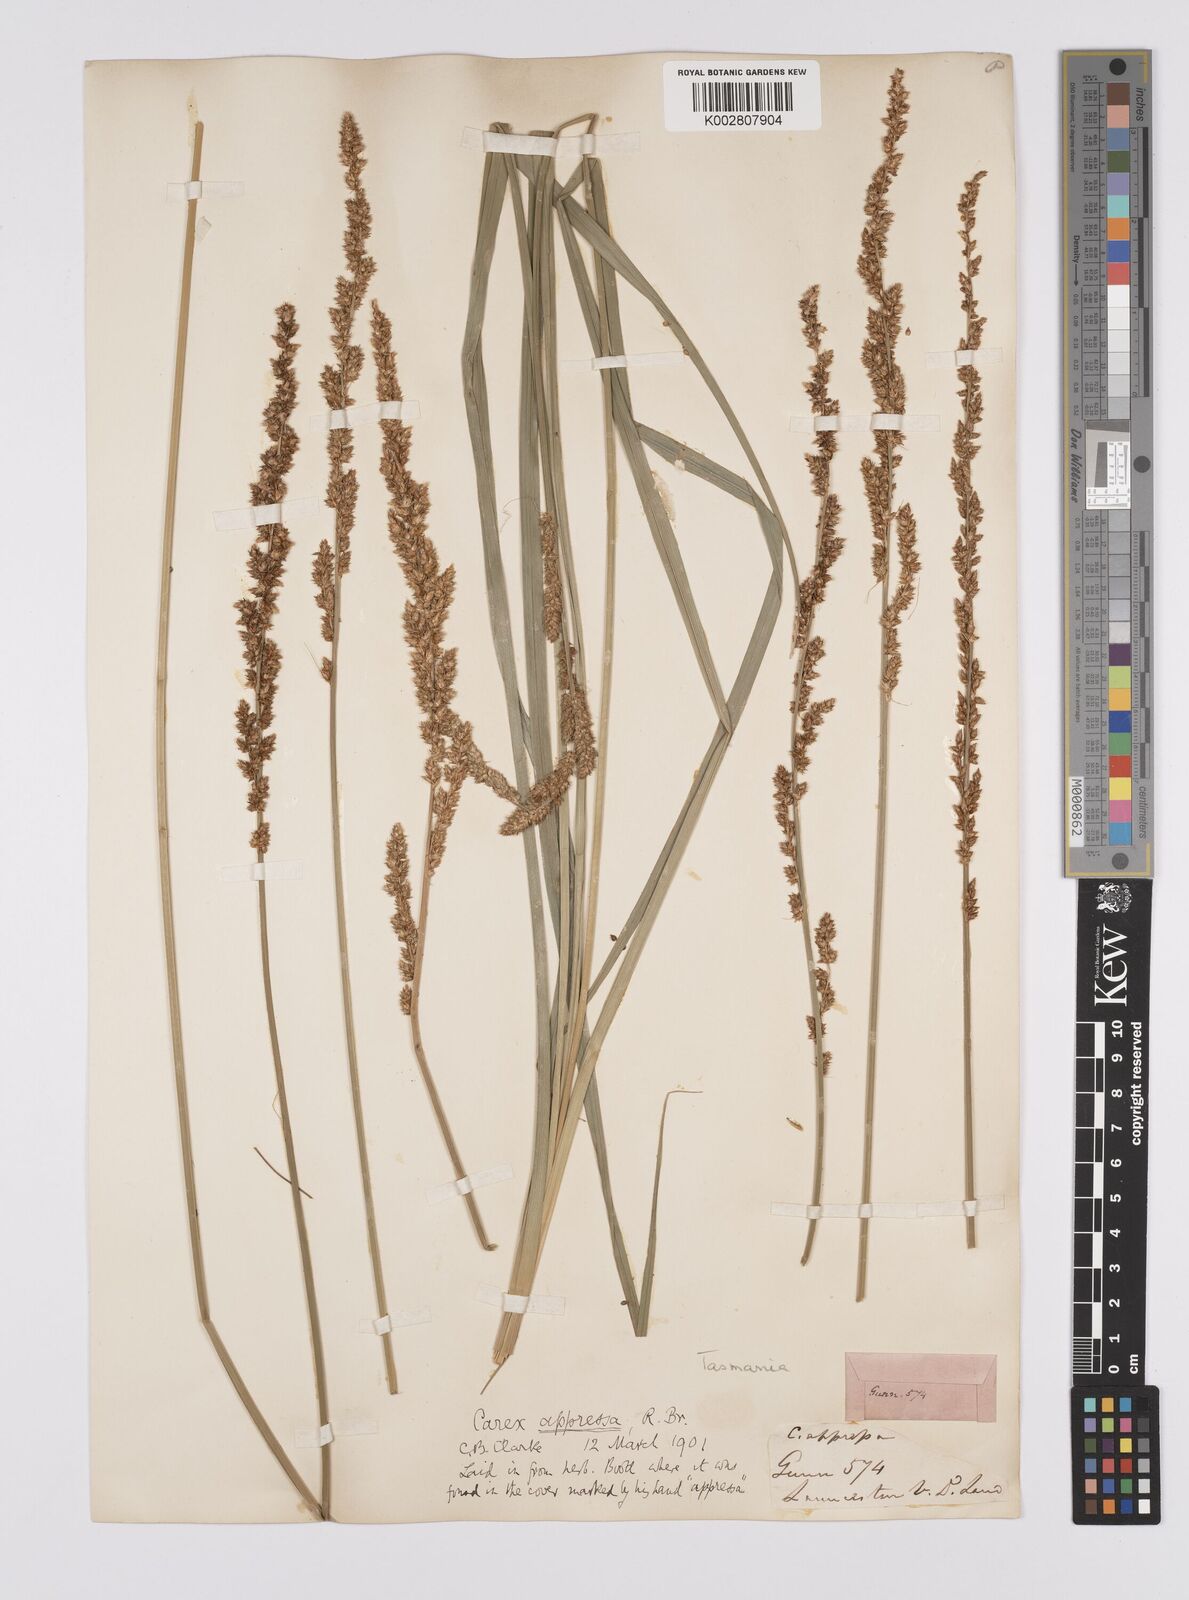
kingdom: Plantae
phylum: Tracheophyta
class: Liliopsida
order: Poales
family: Cyperaceae
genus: Carex
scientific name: Carex appressa
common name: Tussock sedge
